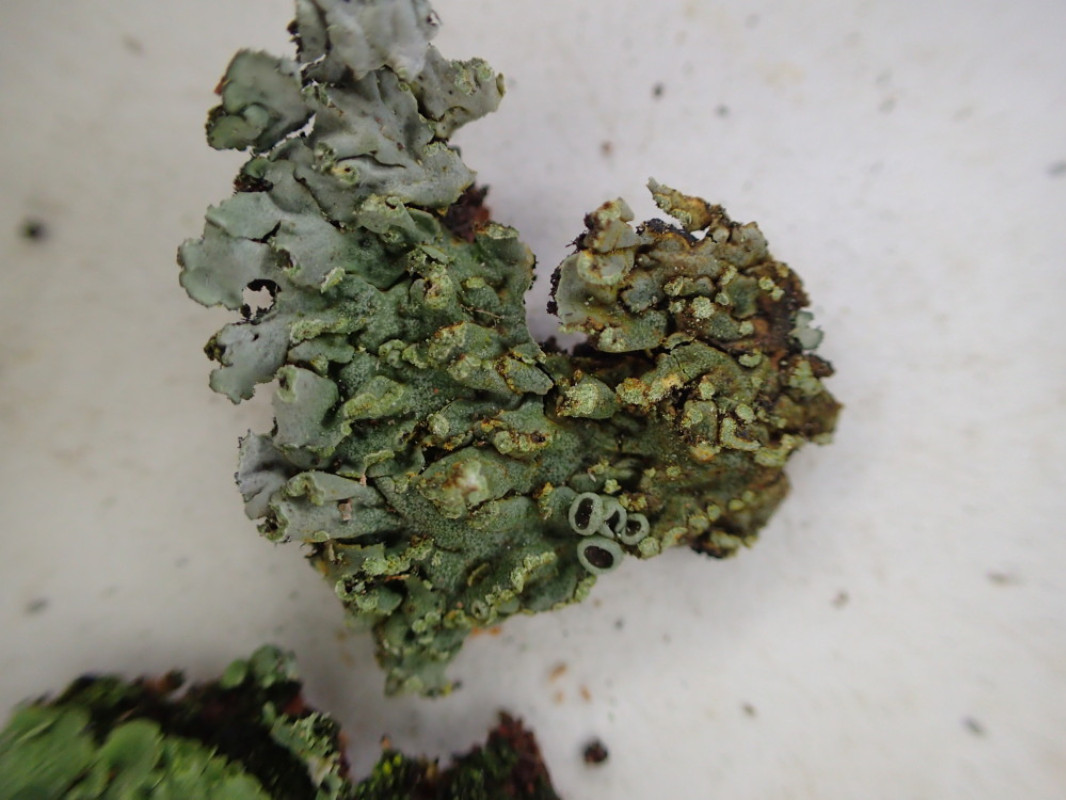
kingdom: Fungi
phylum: Ascomycota
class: Lecanoromycetes
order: Caliciales
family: Physciaceae
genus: Phaeophyscia
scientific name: Phaeophyscia orbicularis
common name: grågrøn rosetlav
